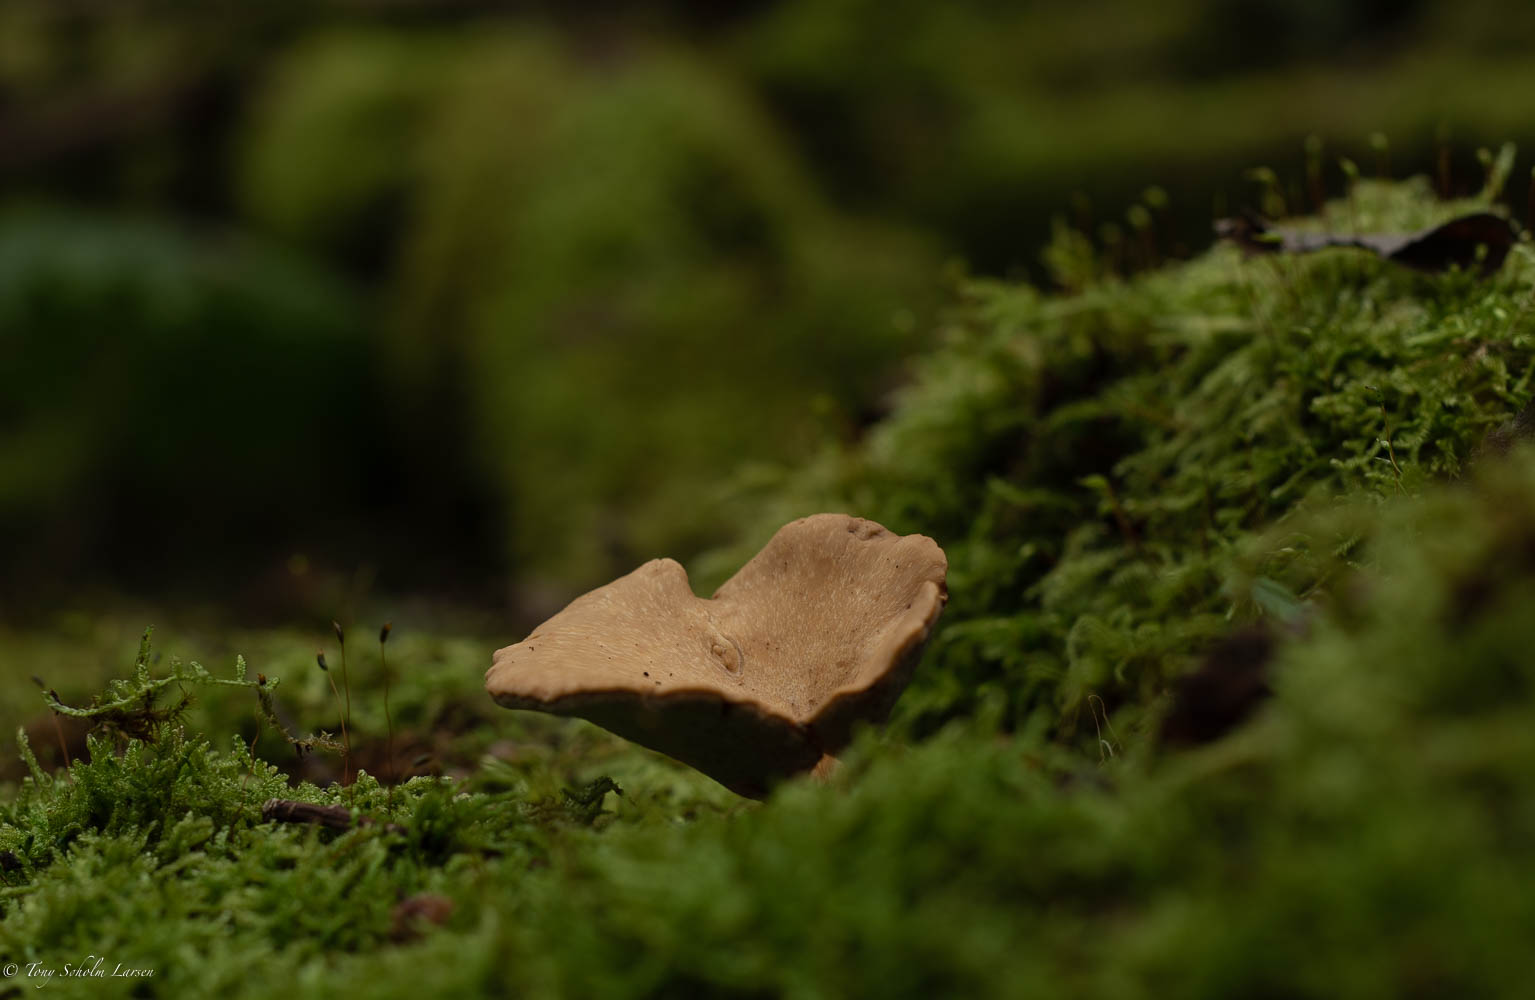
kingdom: Fungi
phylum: Basidiomycota
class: Agaricomycetes
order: Polyporales
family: Polyporaceae
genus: Cerioporus
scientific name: Cerioporus varius
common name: foranderlig stilkporesvamp
